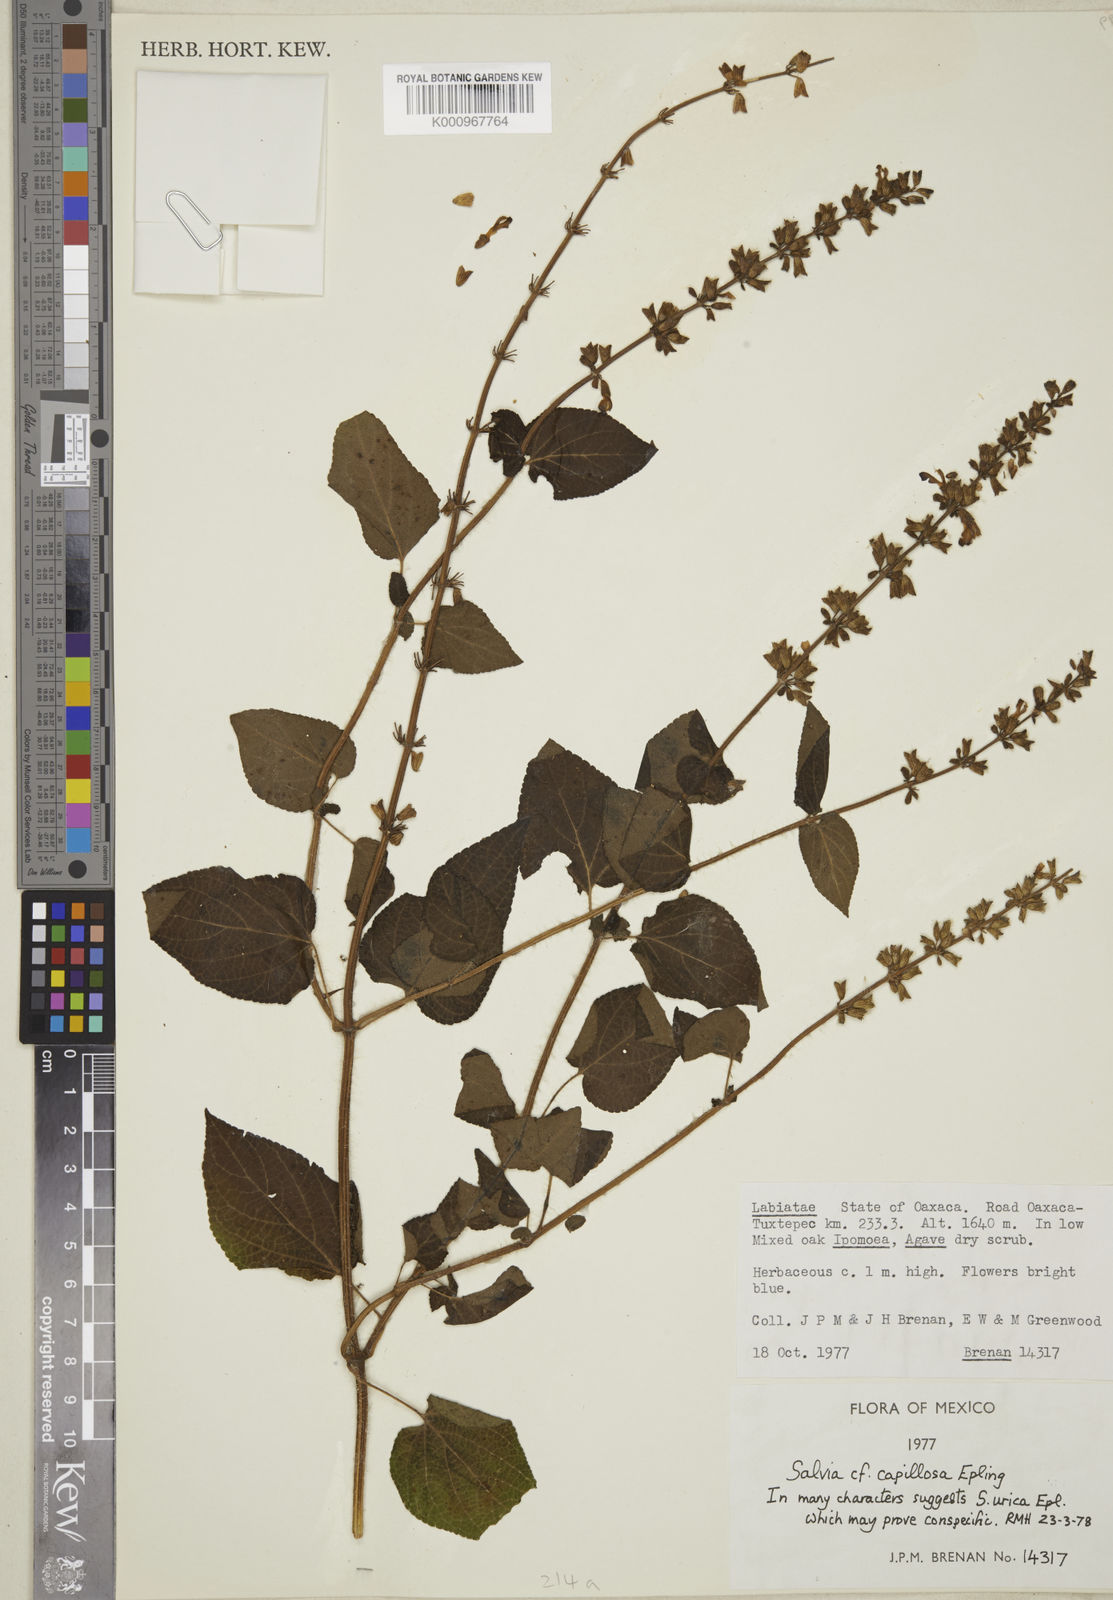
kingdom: Plantae
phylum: Tracheophyta
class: Magnoliopsida
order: Lamiales
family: Lamiaceae
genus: Salvia
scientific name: Salvia circinnata
